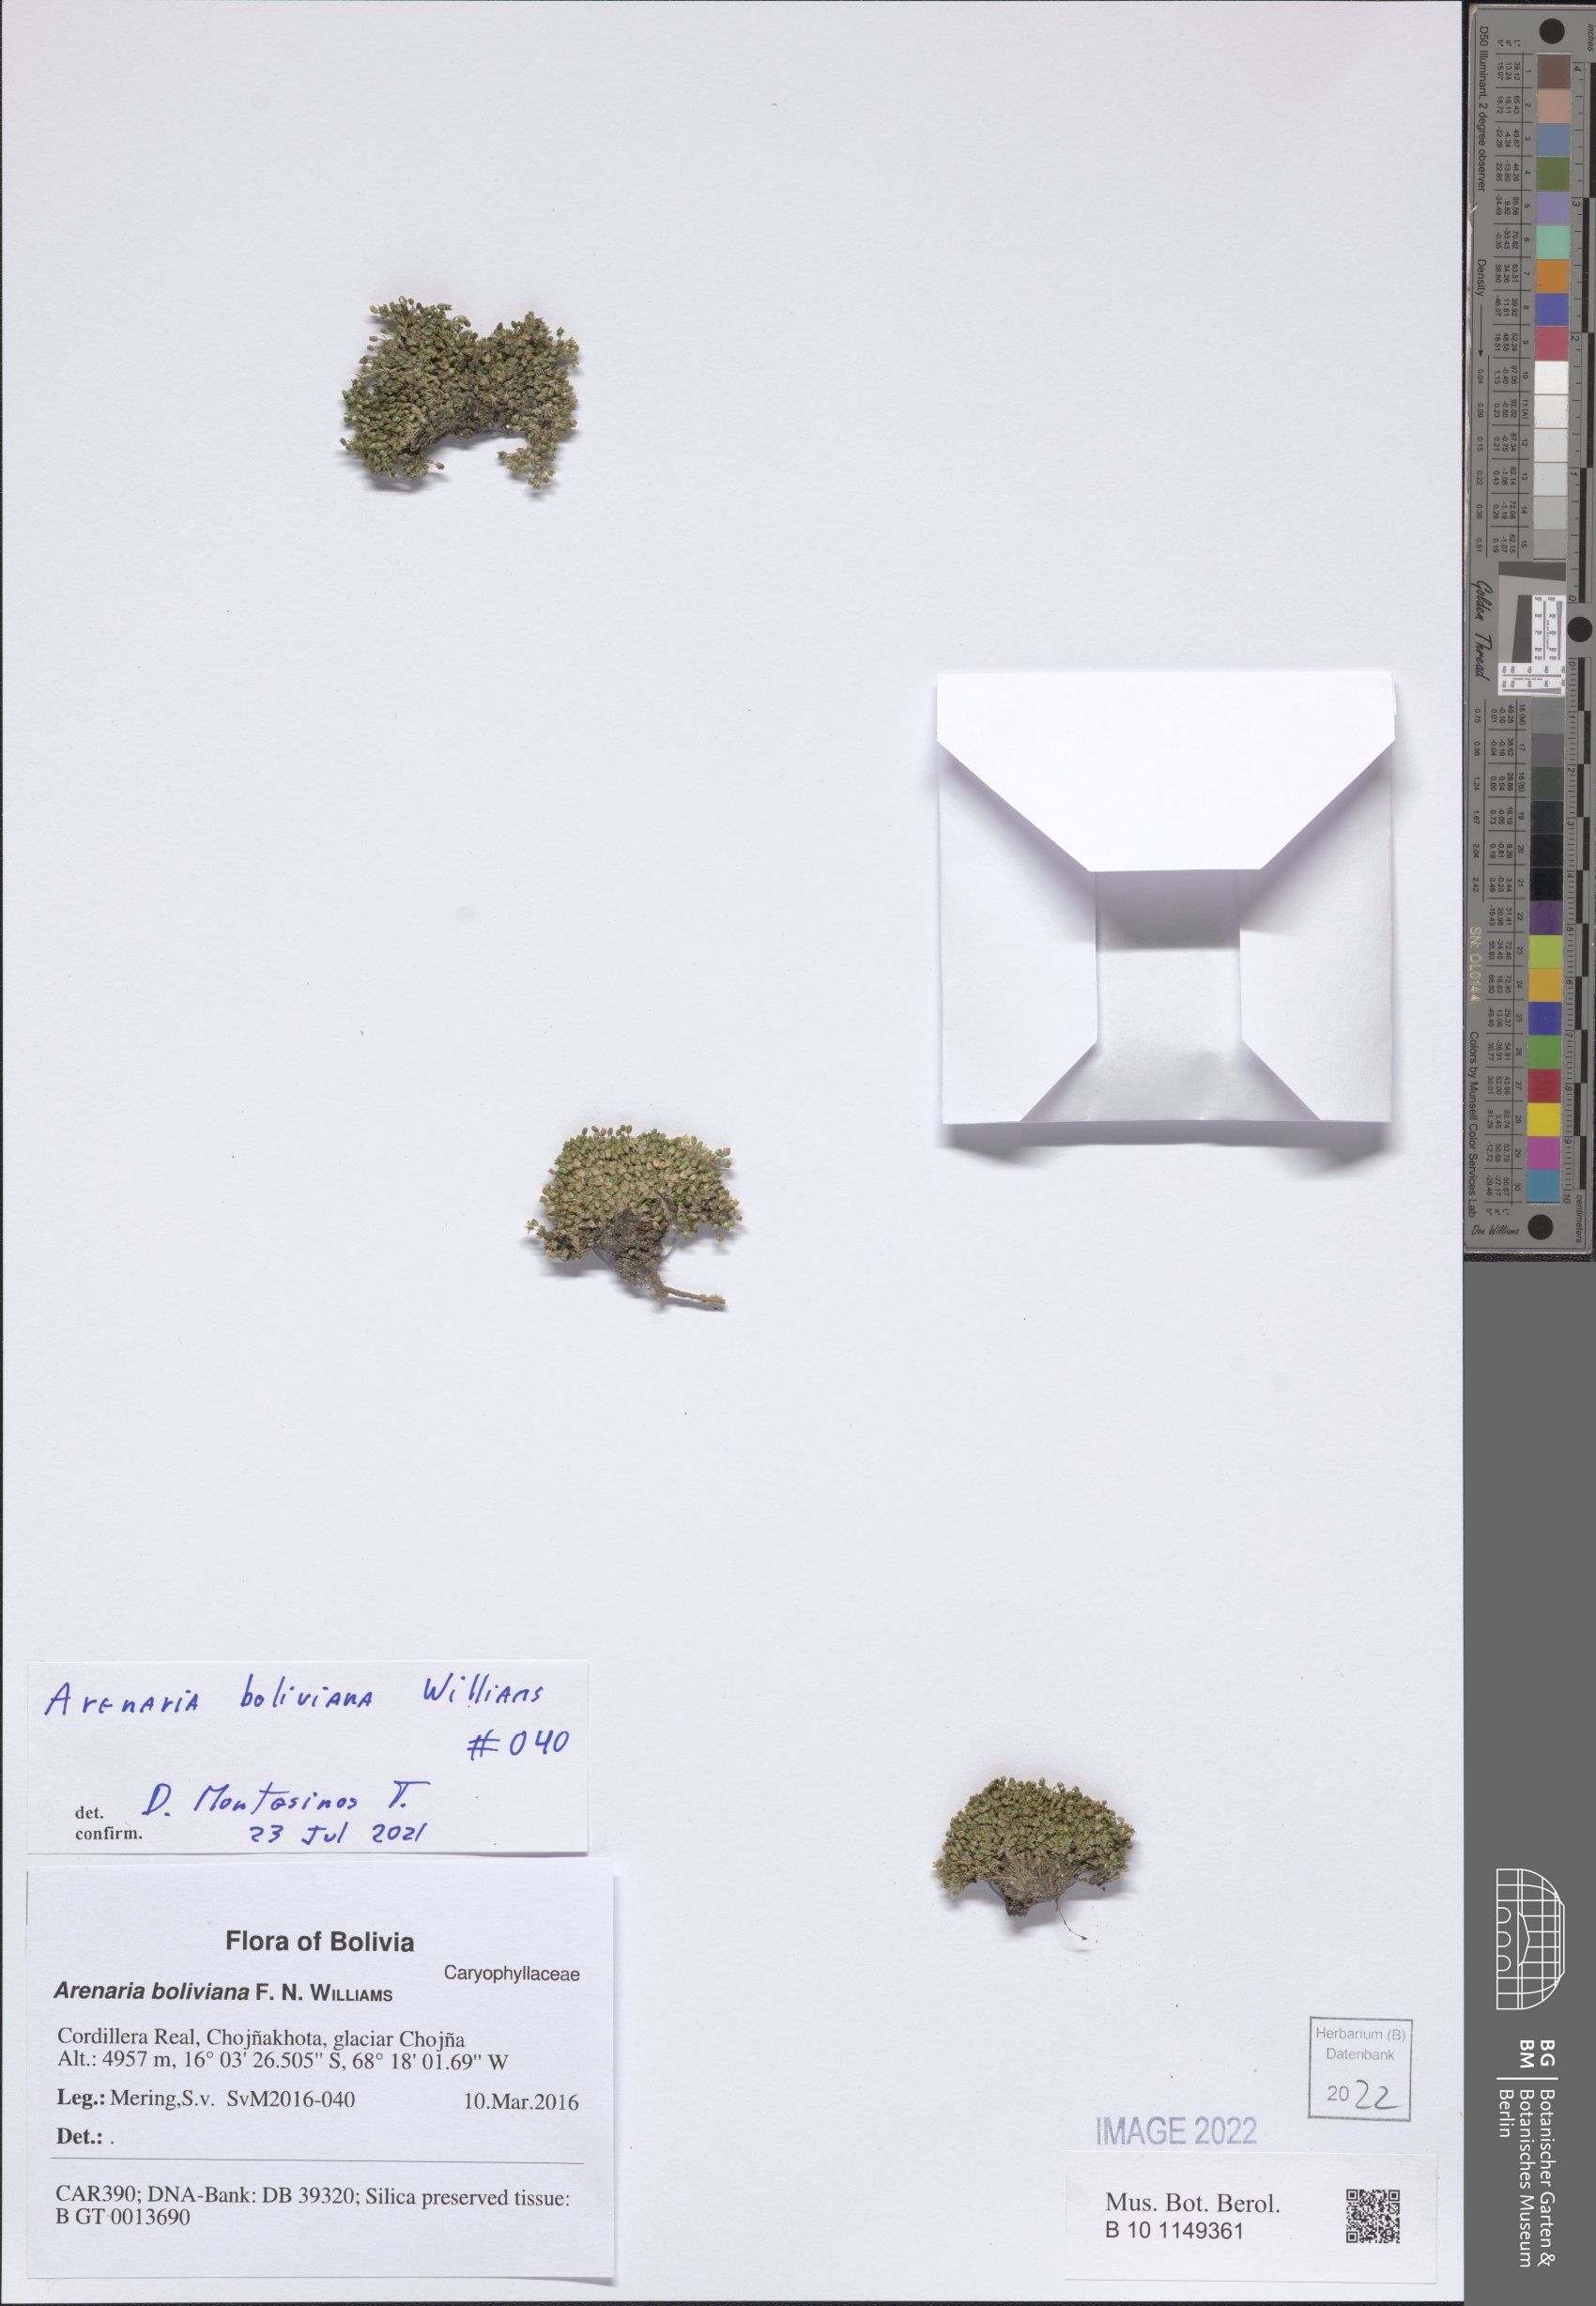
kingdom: Plantae
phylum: Tracheophyta
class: Magnoliopsida
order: Caryophyllales
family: Caryophyllaceae
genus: Arenaria
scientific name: Arenaria boliviana
